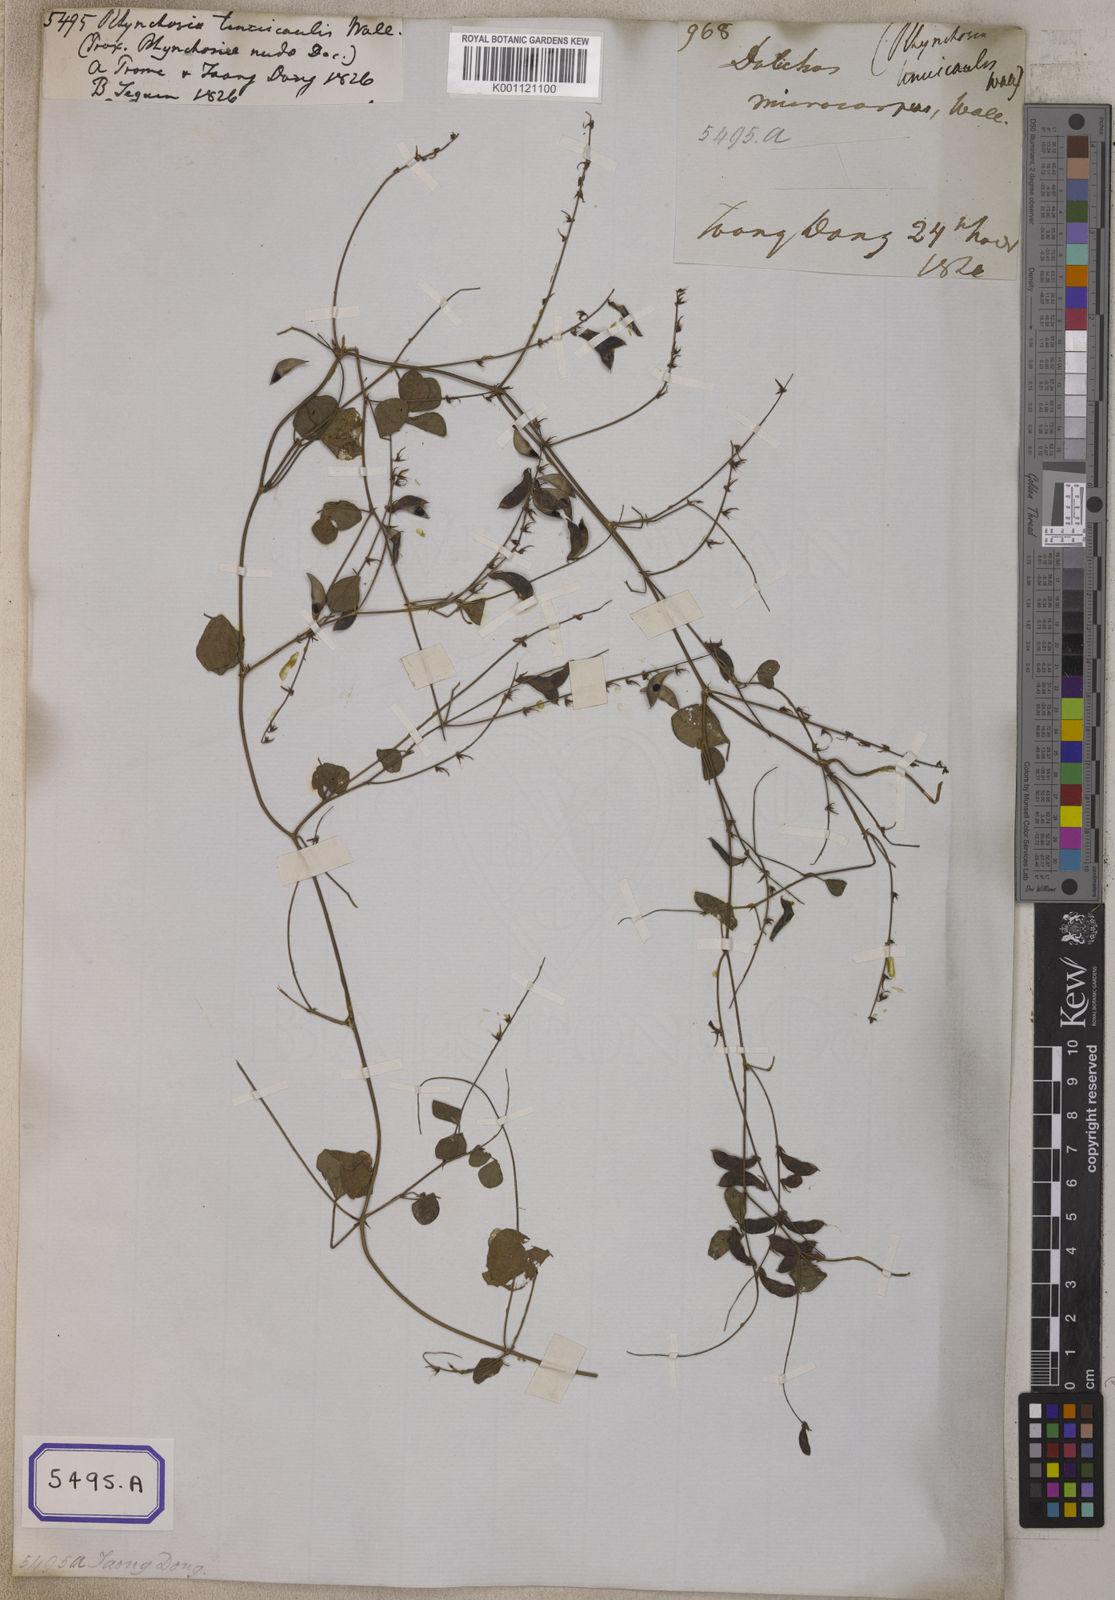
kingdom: Plantae
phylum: Tracheophyta
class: Magnoliopsida
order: Fabales
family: Fabaceae
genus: Rhynchosia
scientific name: Rhynchosia minima
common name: Least snoutbean
